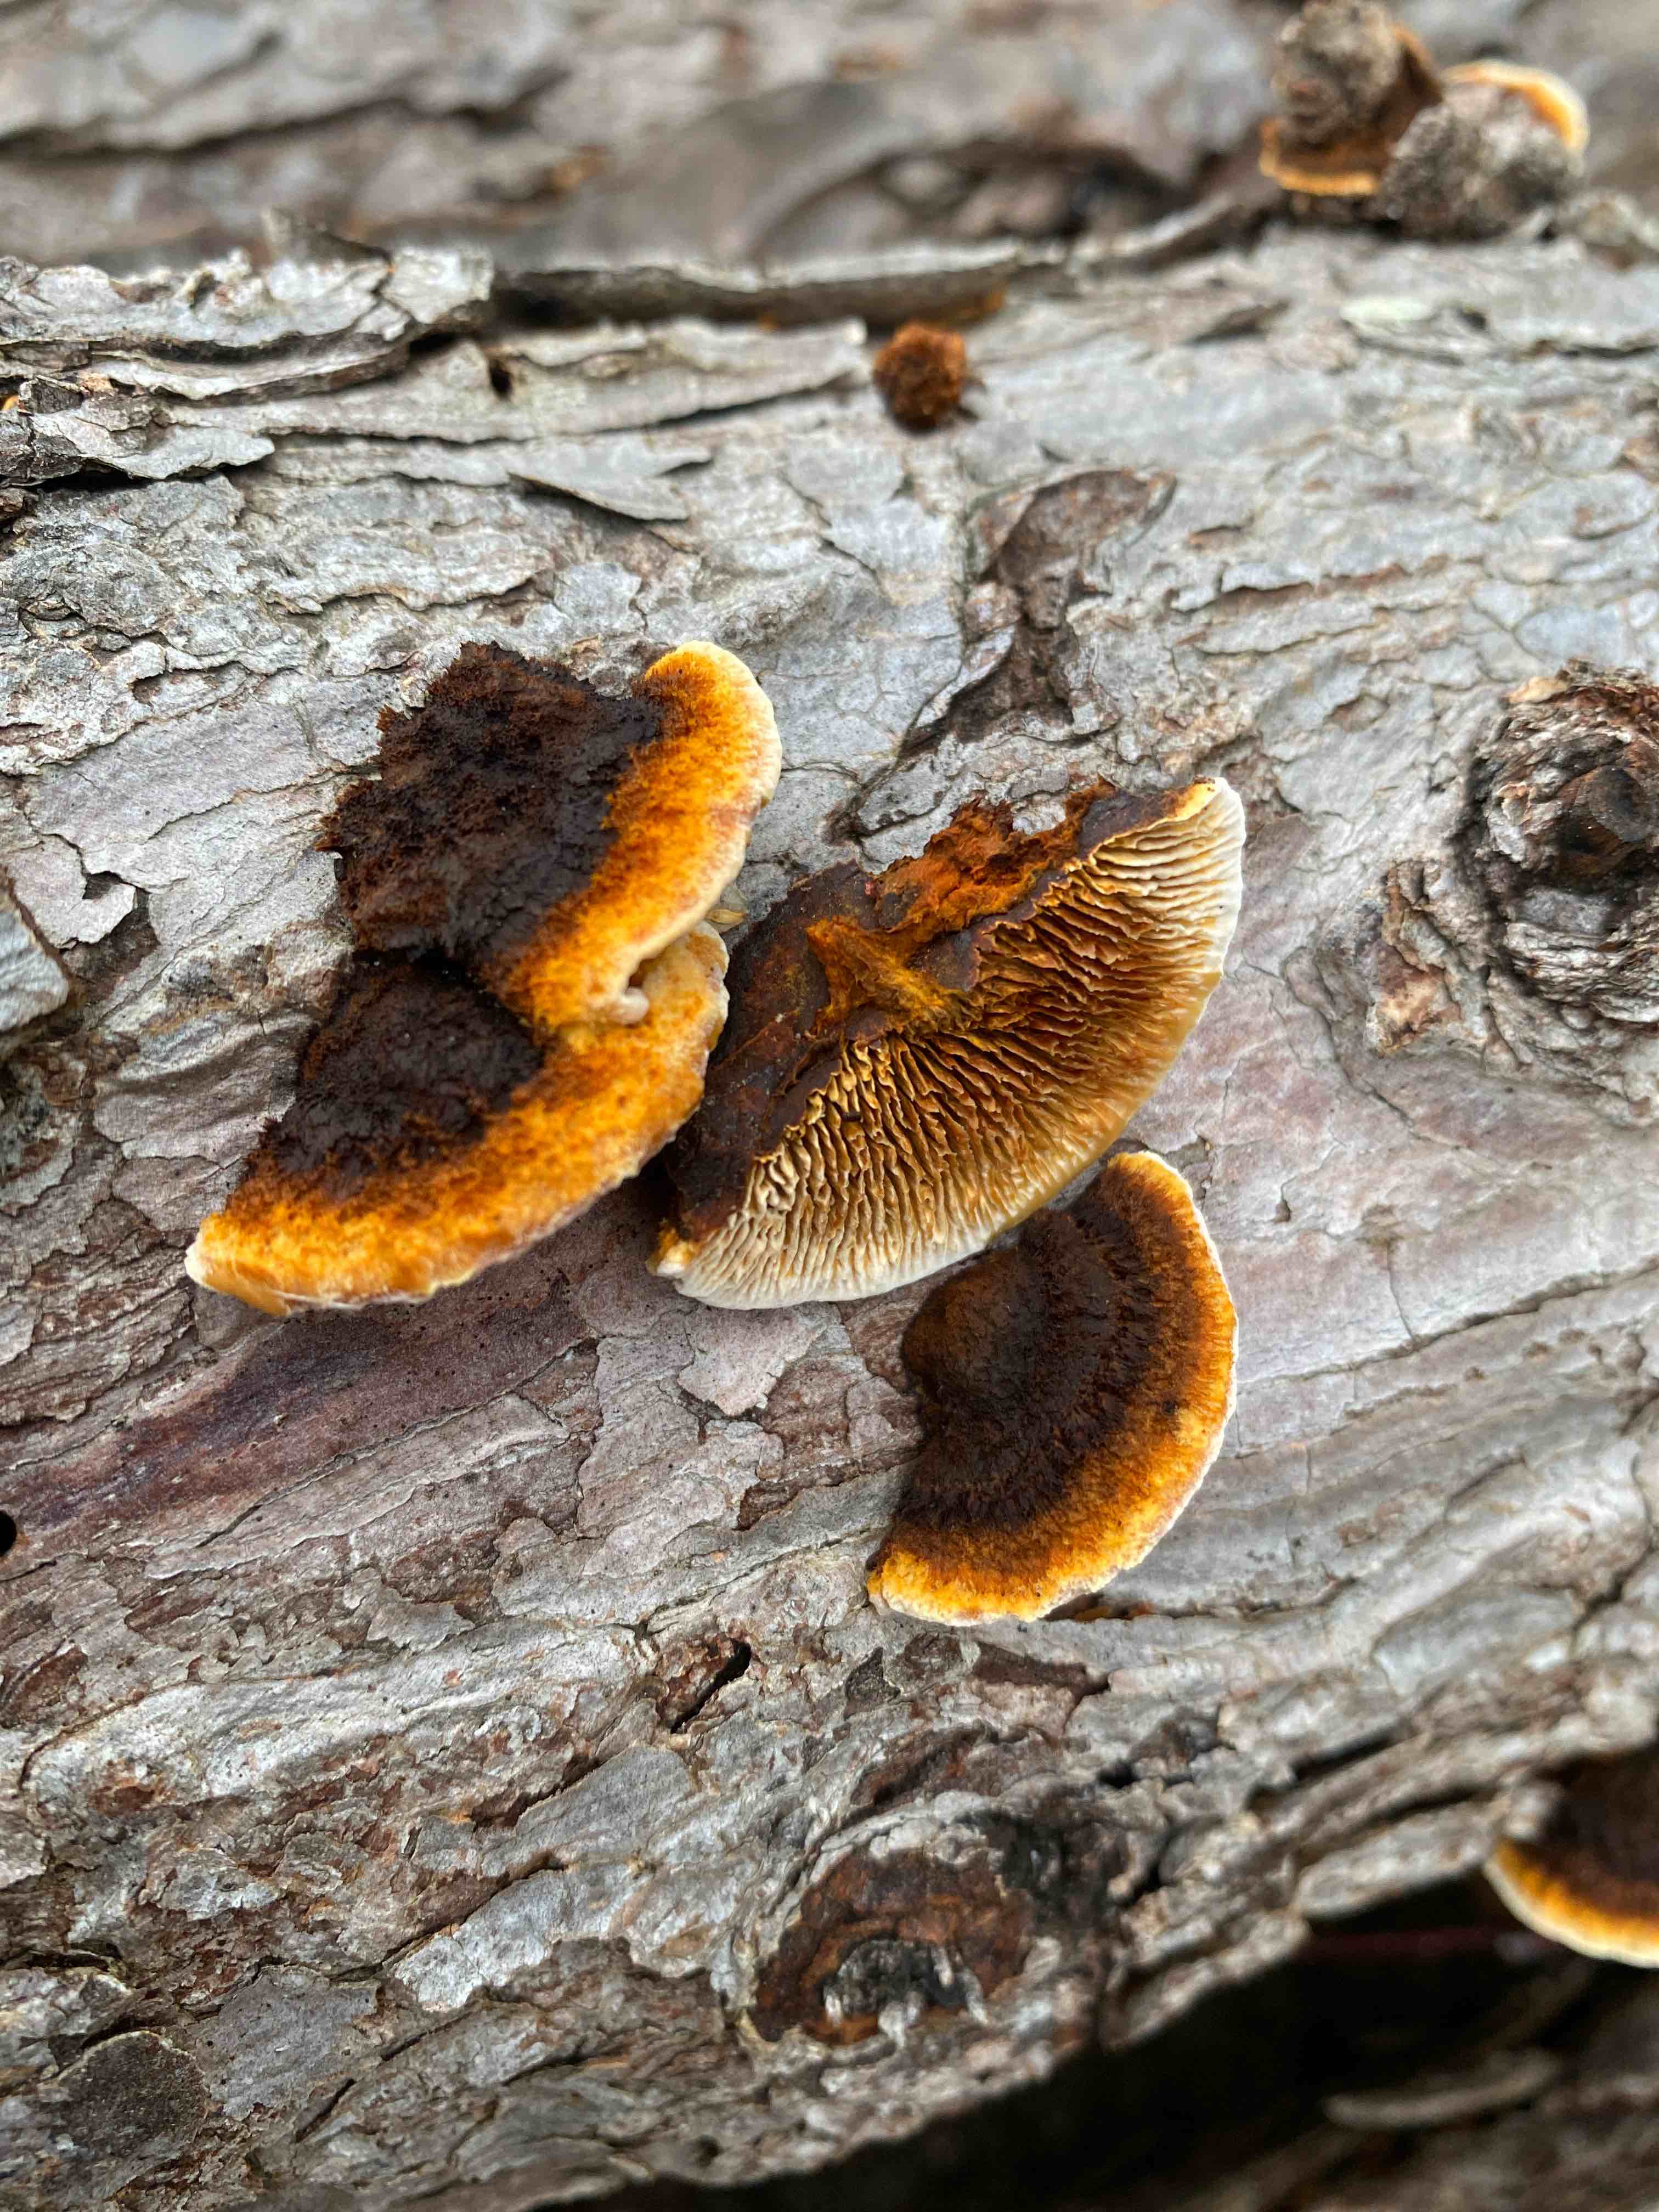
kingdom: Fungi
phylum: Basidiomycota
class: Agaricomycetes
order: Gloeophyllales
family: Gloeophyllaceae
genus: Gloeophyllum
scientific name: Gloeophyllum sepiarium
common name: fyrre-korkhat
